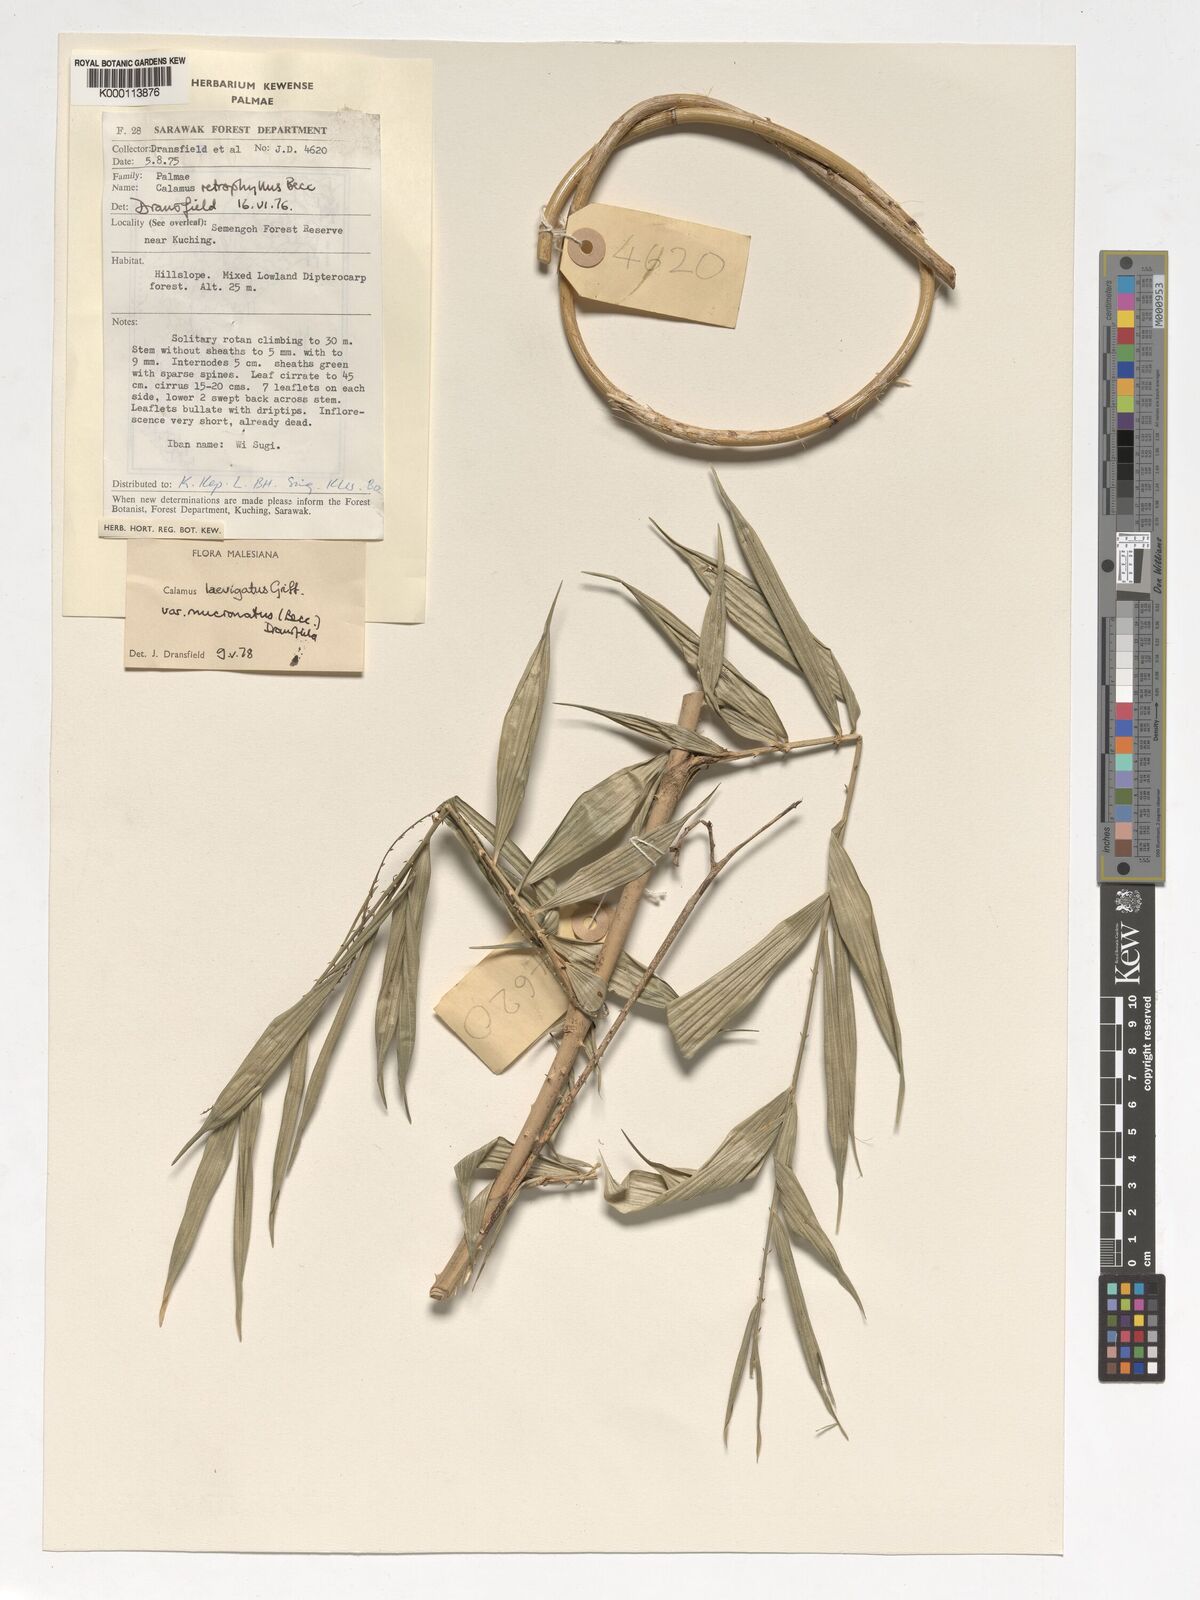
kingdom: Plantae
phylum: Tracheophyta
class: Liliopsida
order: Arecales
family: Arecaceae
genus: Calamus
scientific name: Calamus plicatus
